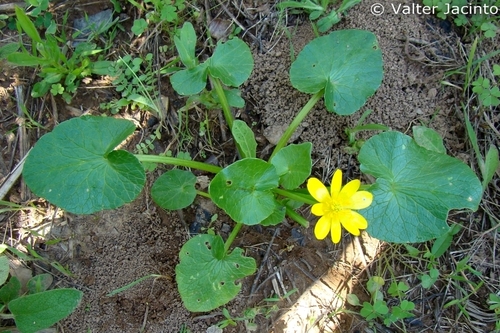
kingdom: Plantae
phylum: Tracheophyta
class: Magnoliopsida
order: Ranunculales
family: Ranunculaceae
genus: Ficaria
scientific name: Ficaria verna
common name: Lesser celandine
